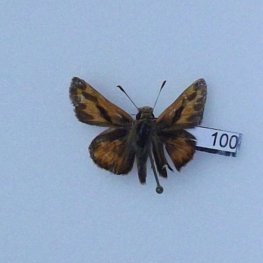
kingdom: Animalia
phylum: Arthropoda
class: Insecta
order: Lepidoptera
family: Hesperiidae
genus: Ochlodes
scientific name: Ochlodes sylvanoides
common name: Woodland Skipper
